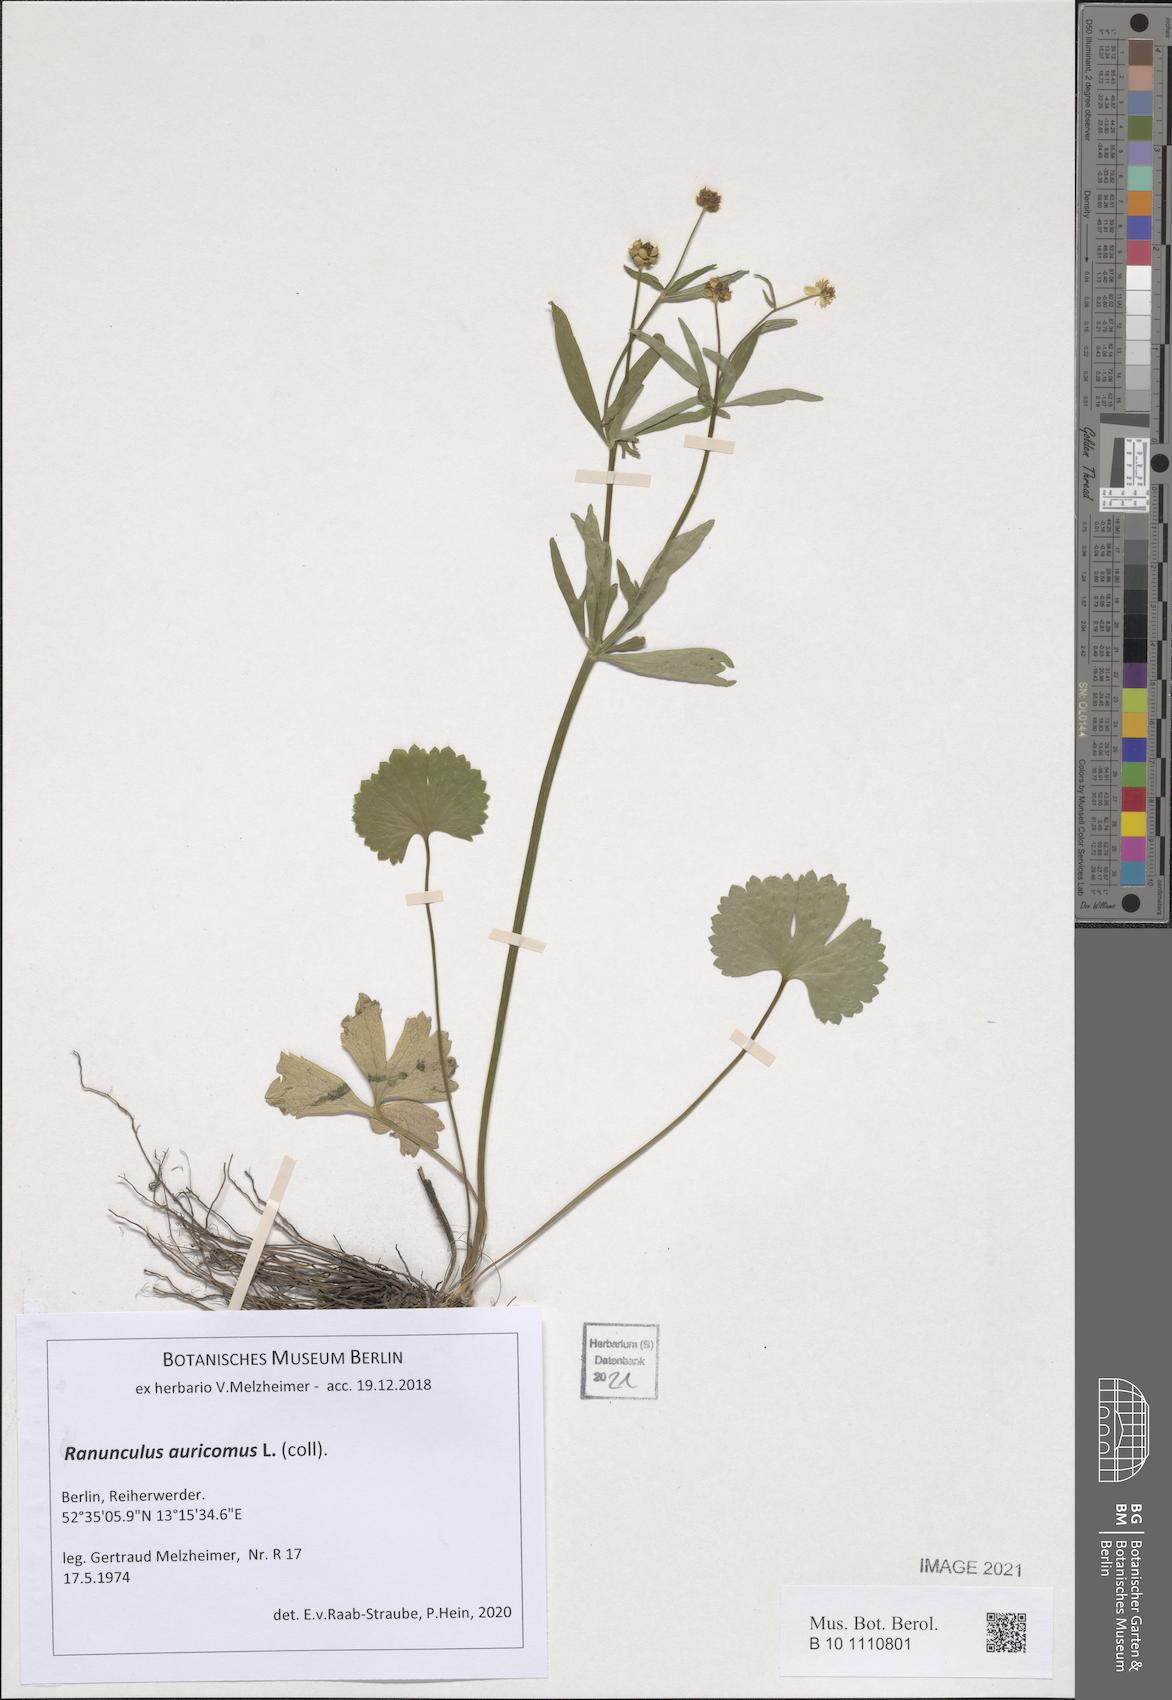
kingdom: Plantae
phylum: Tracheophyta
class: Magnoliopsida
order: Ranunculales
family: Ranunculaceae
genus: Ranunculus
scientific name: Ranunculus auricomus
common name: Goldilocks buttercup
